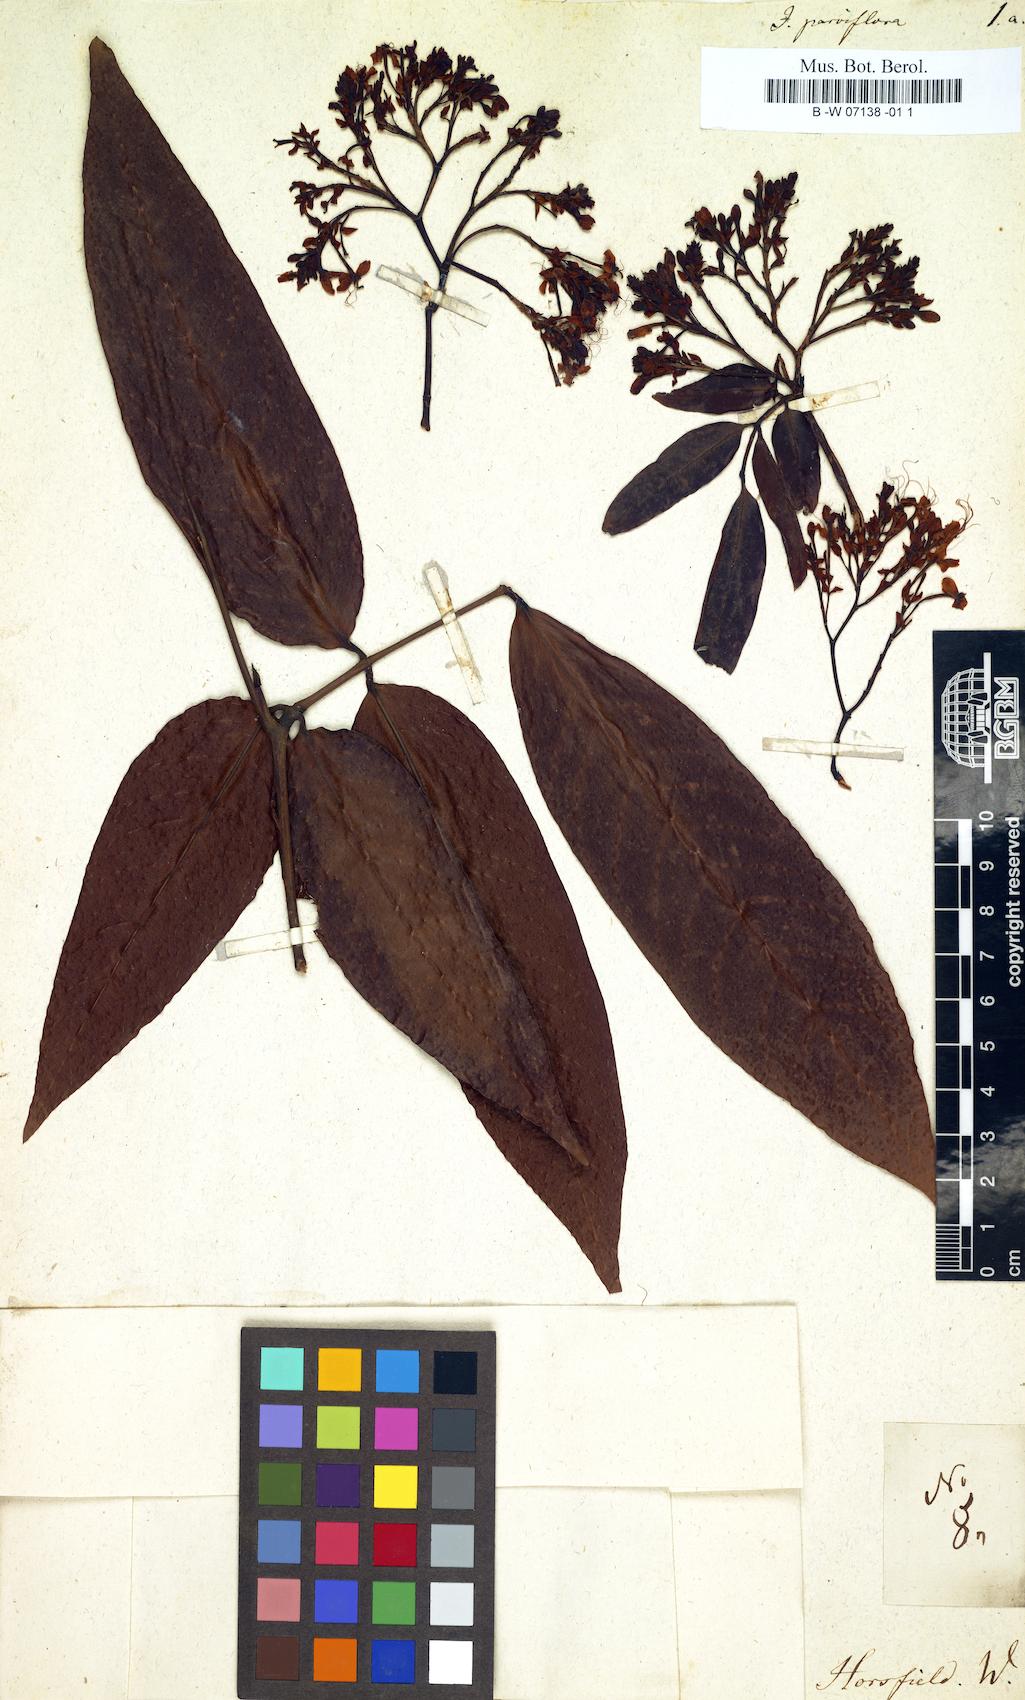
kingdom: Plantae
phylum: Bryophyta
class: Bryopsida
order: Funariales
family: Funariaceae
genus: Jonesia
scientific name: Jonesia
